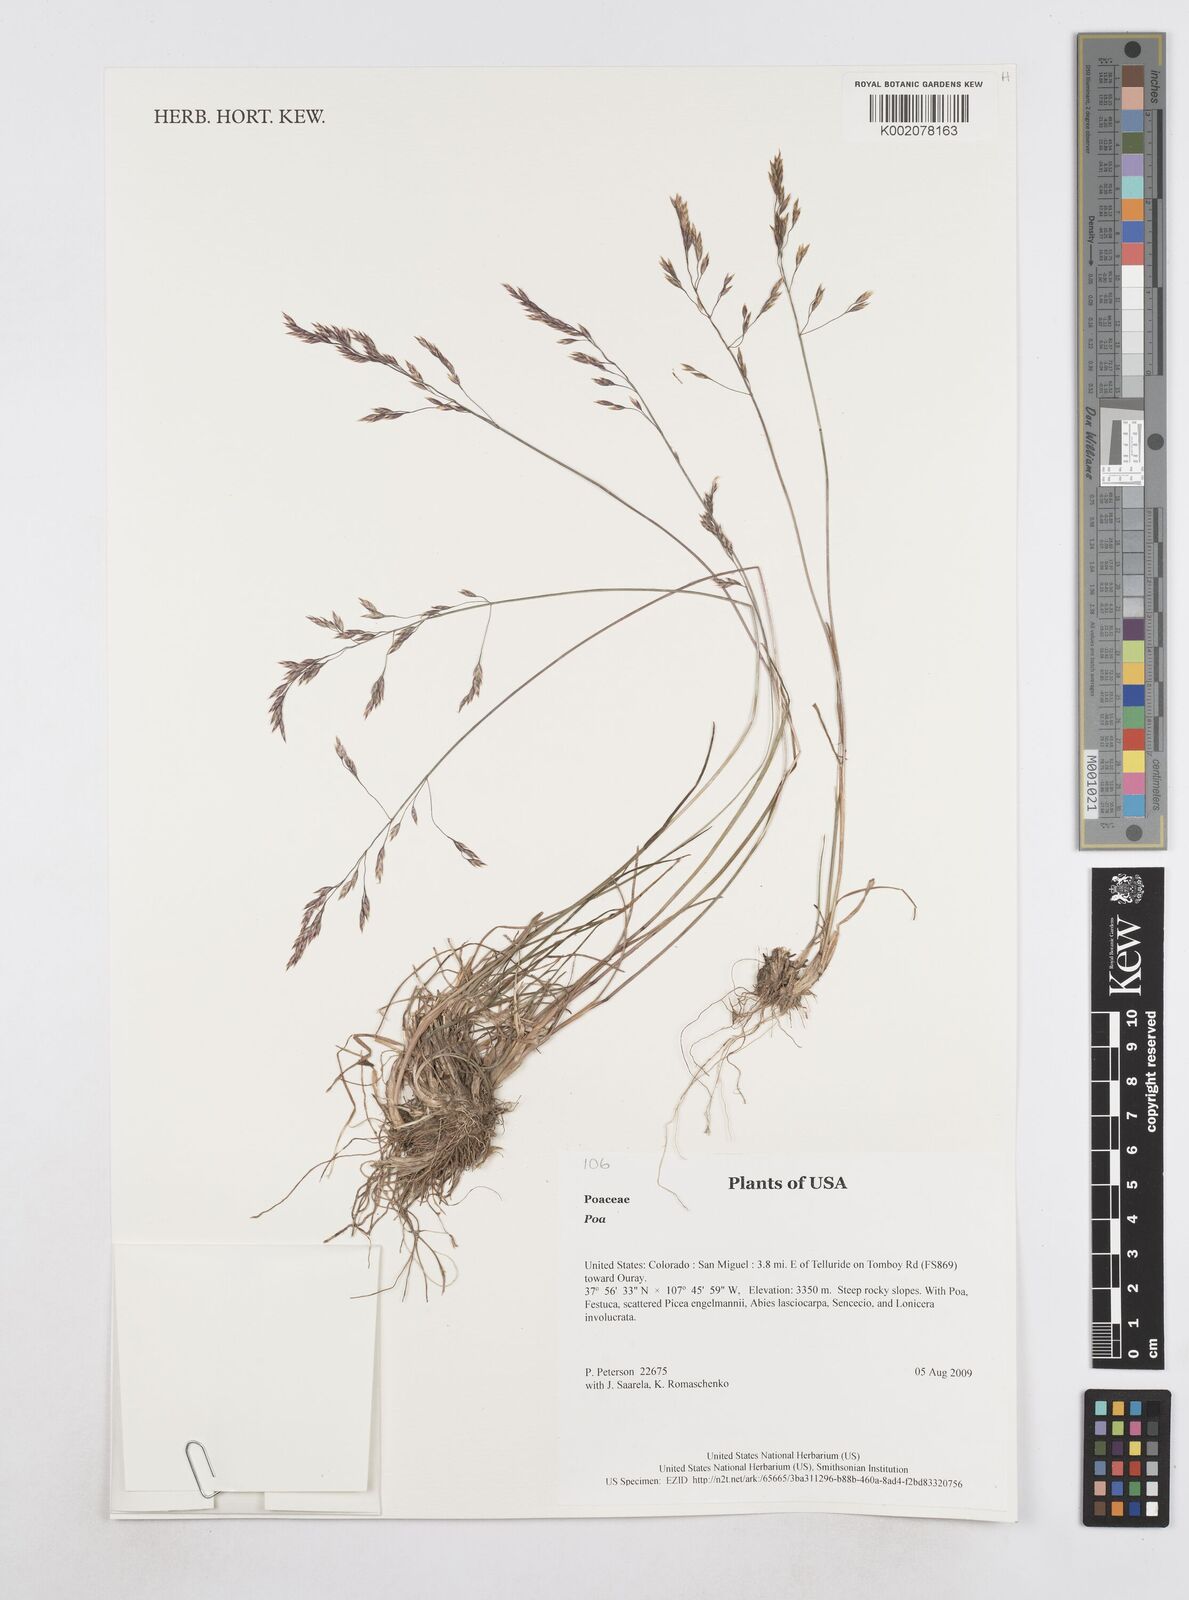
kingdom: Plantae
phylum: Tracheophyta
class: Liliopsida
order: Poales
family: Poaceae
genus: Poa
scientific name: Poa
